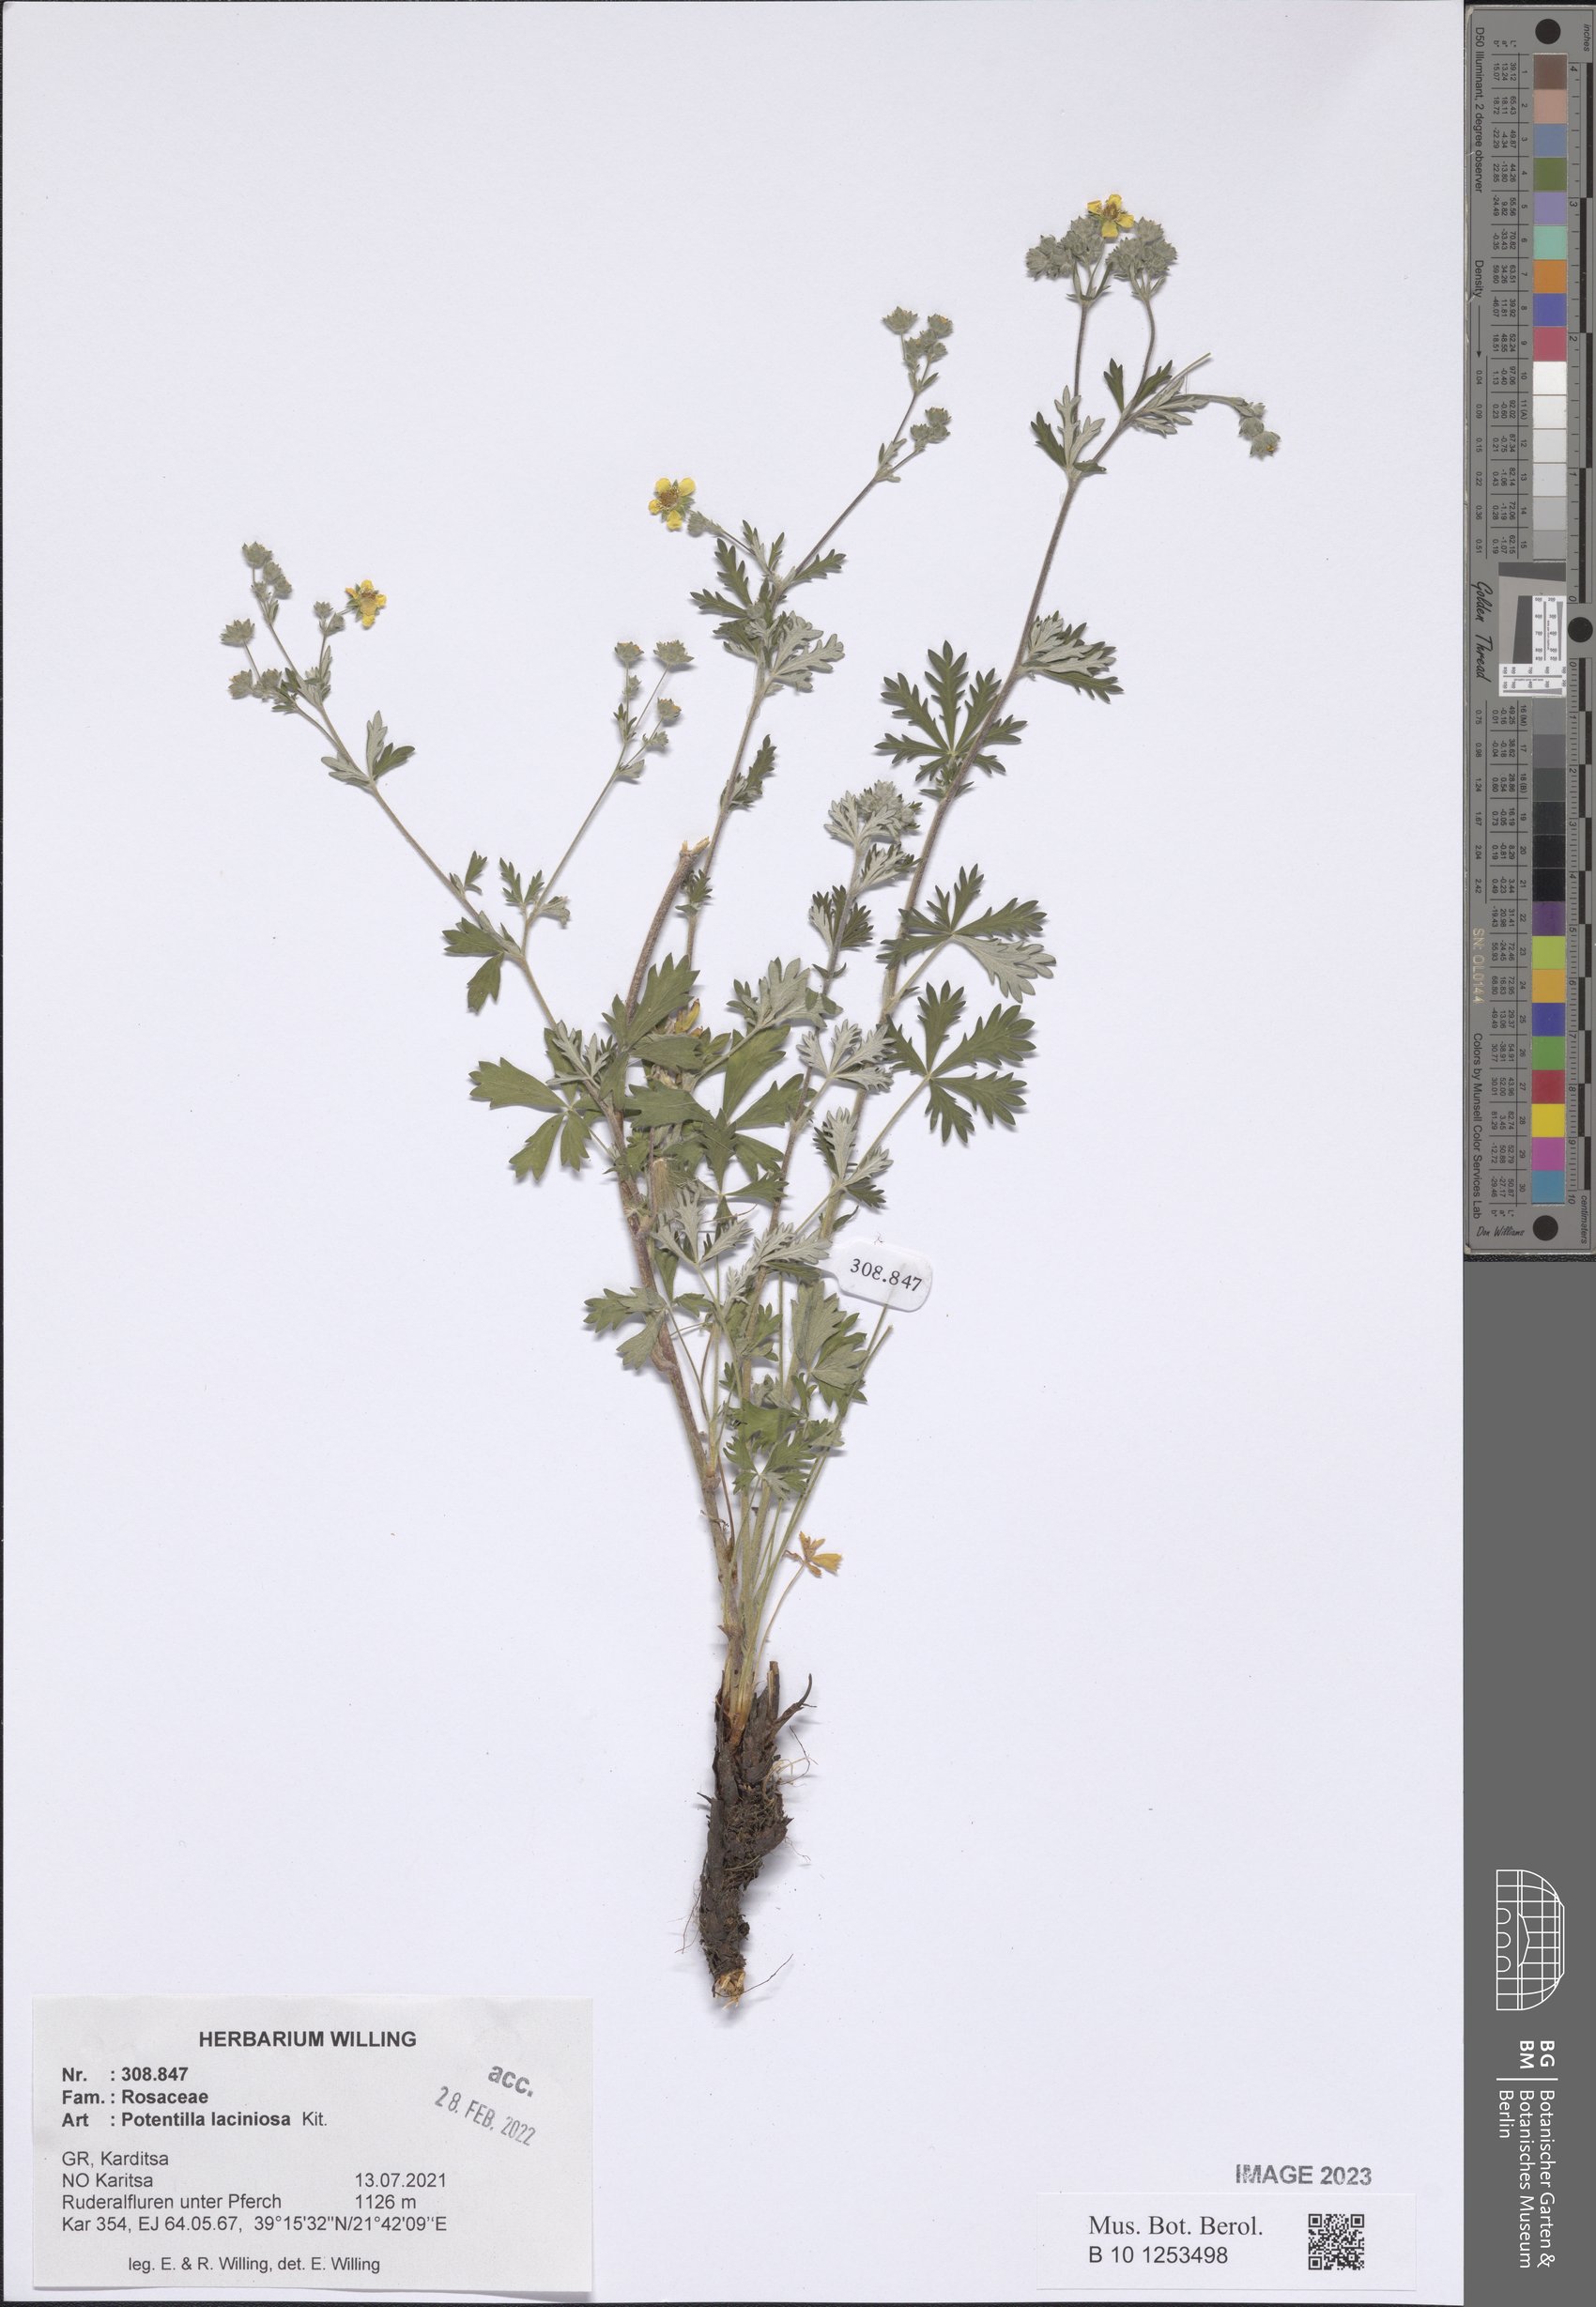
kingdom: Plantae
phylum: Tracheophyta
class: Magnoliopsida
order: Rosales
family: Rosaceae
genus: Potentilla
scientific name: Potentilla recta
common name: Sulphur cinquefoil
